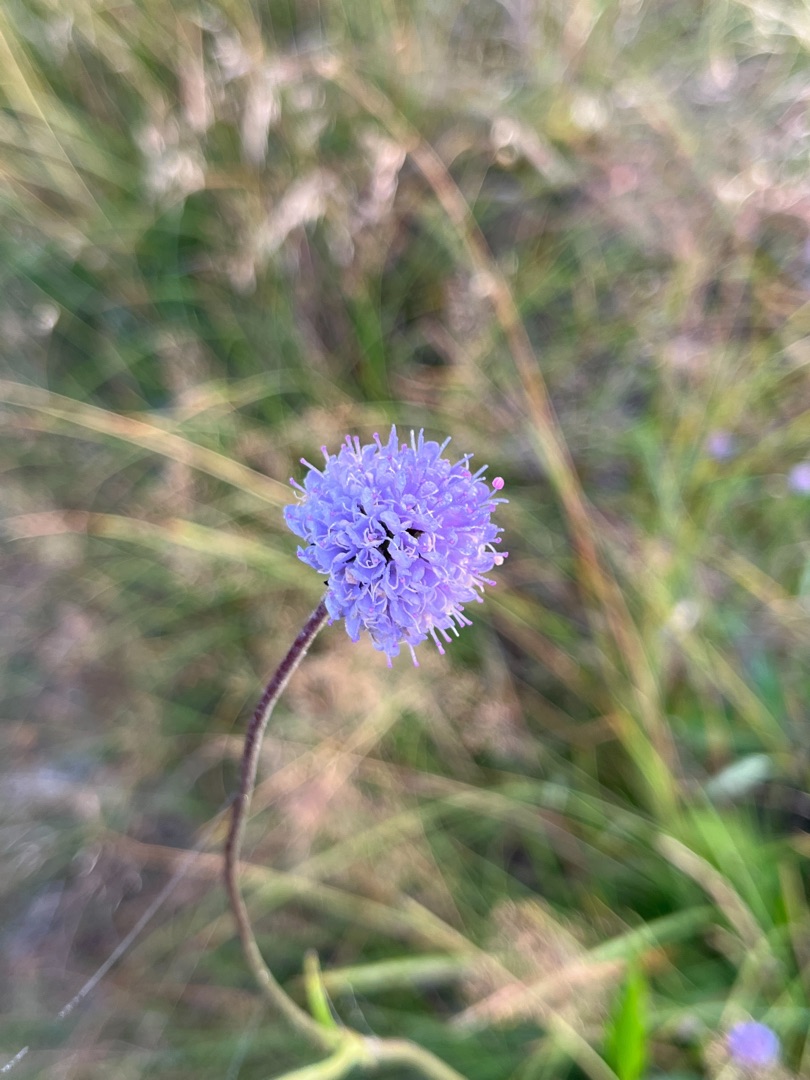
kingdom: Plantae
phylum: Tracheophyta
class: Magnoliopsida
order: Dipsacales
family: Caprifoliaceae
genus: Succisa
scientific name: Succisa pratensis
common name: Djævelsbid
